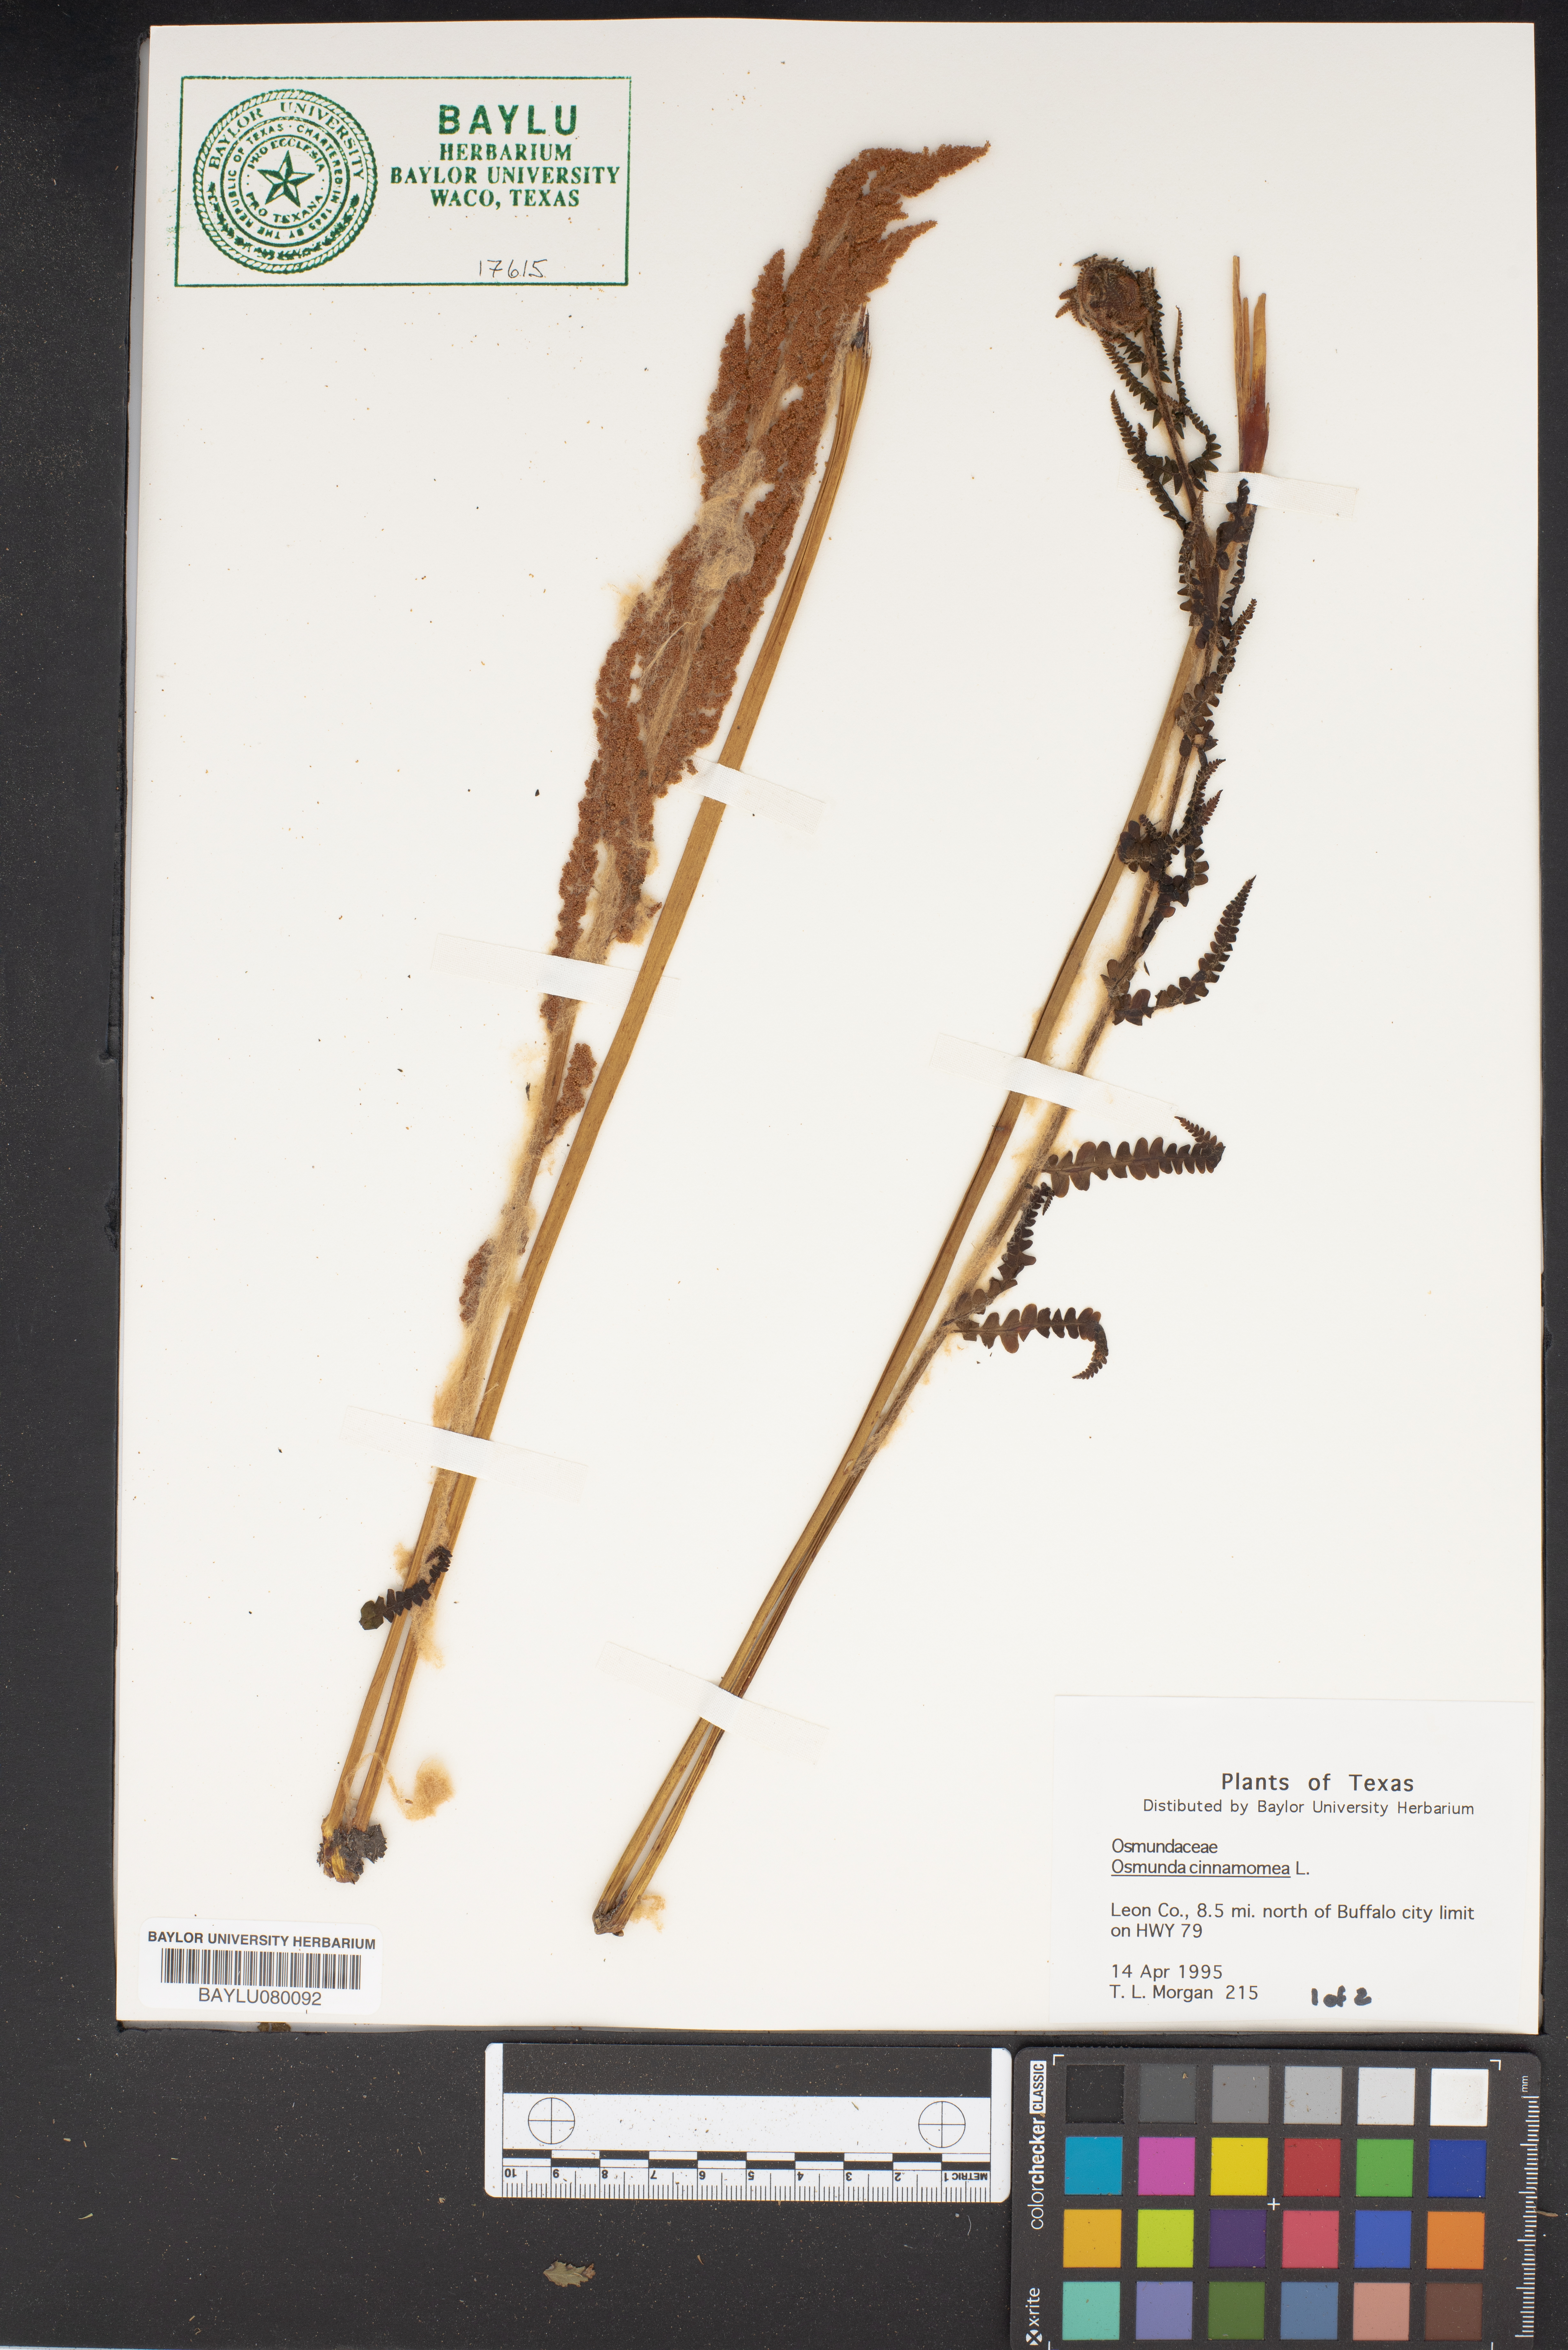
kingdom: Plantae
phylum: Tracheophyta
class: Polypodiopsida
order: Osmundales
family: Osmundaceae
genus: Osmundastrum
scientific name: Osmundastrum cinnamomeum
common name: Cinnamon fern
